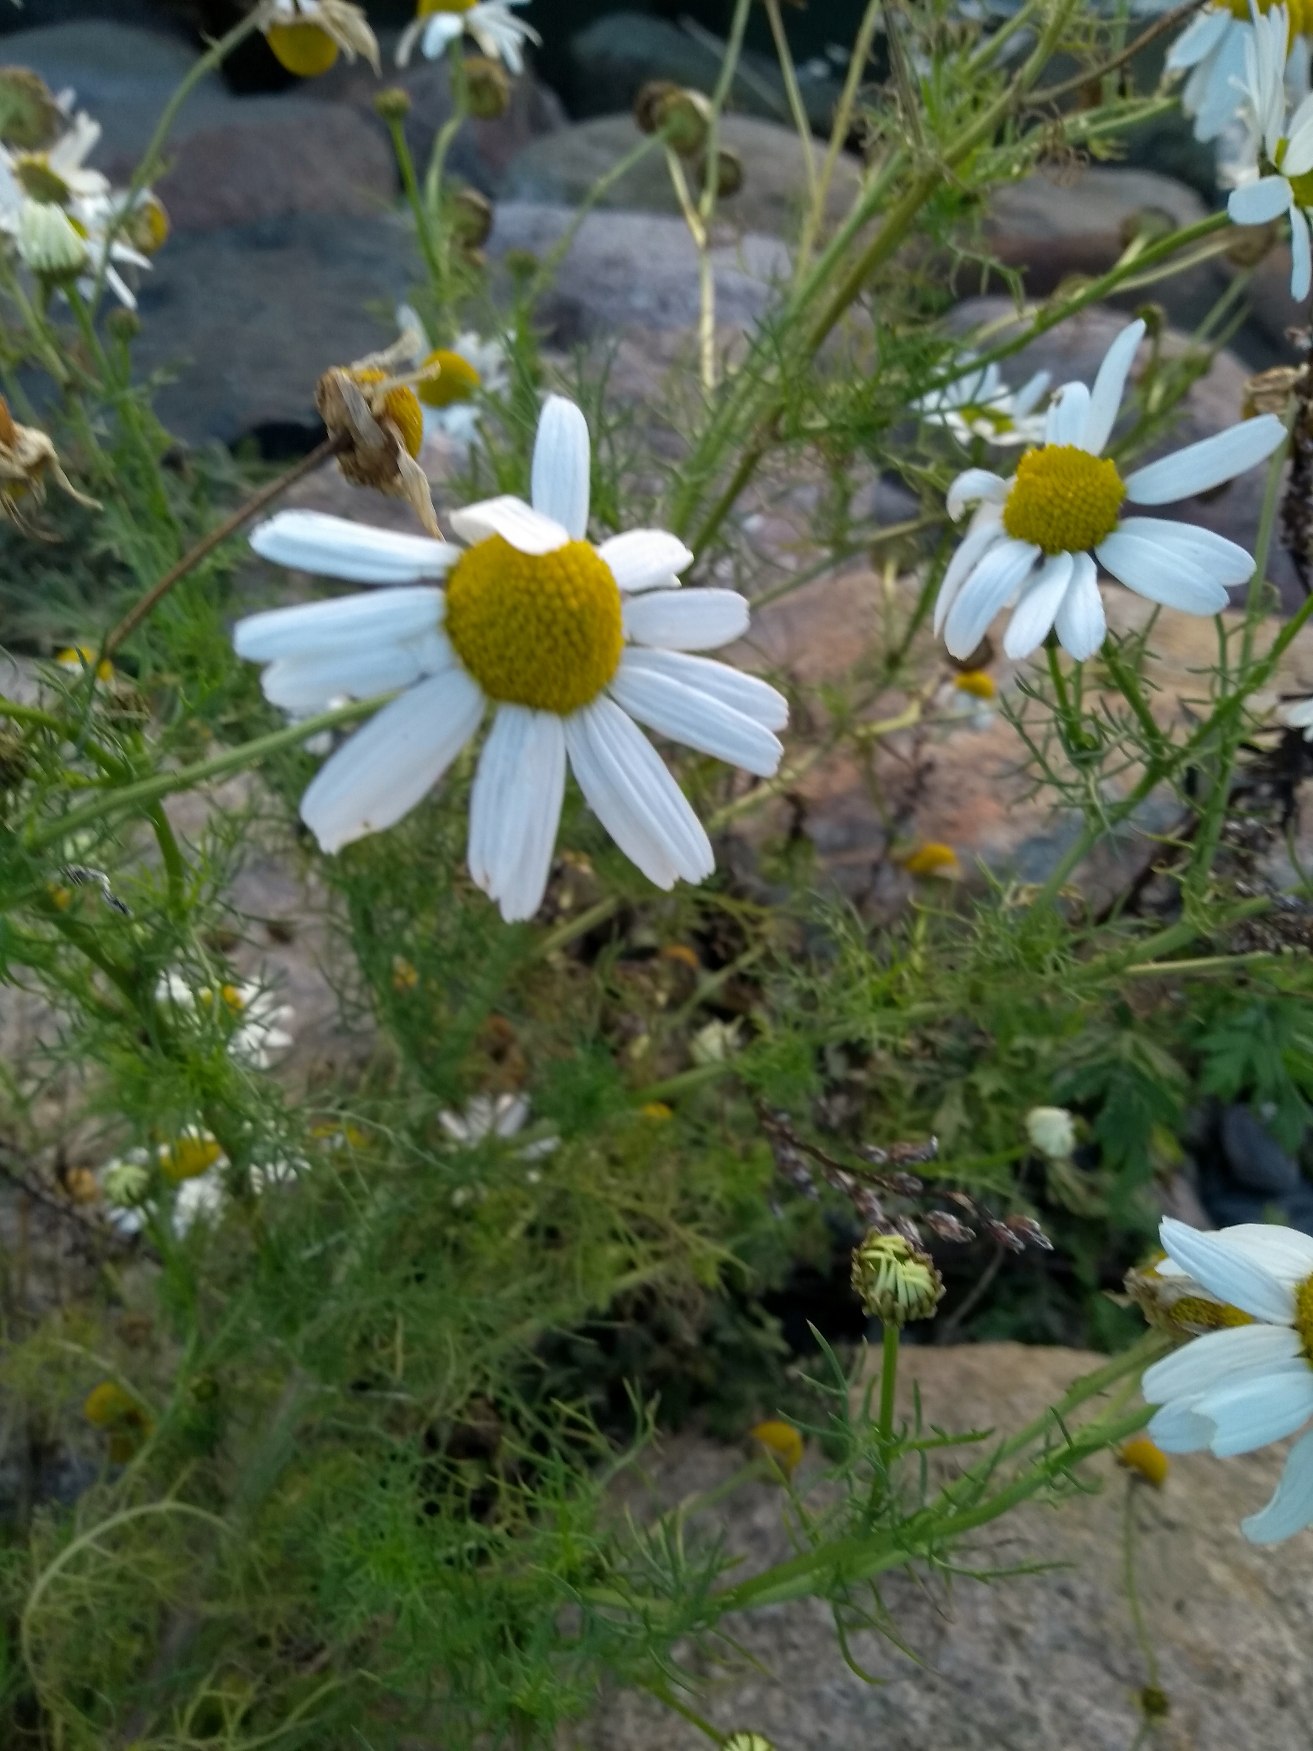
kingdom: Plantae
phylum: Tracheophyta
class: Magnoliopsida
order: Asterales
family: Asteraceae
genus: Tripleurospermum
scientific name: Tripleurospermum inodorum
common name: Lugtløs kamille
